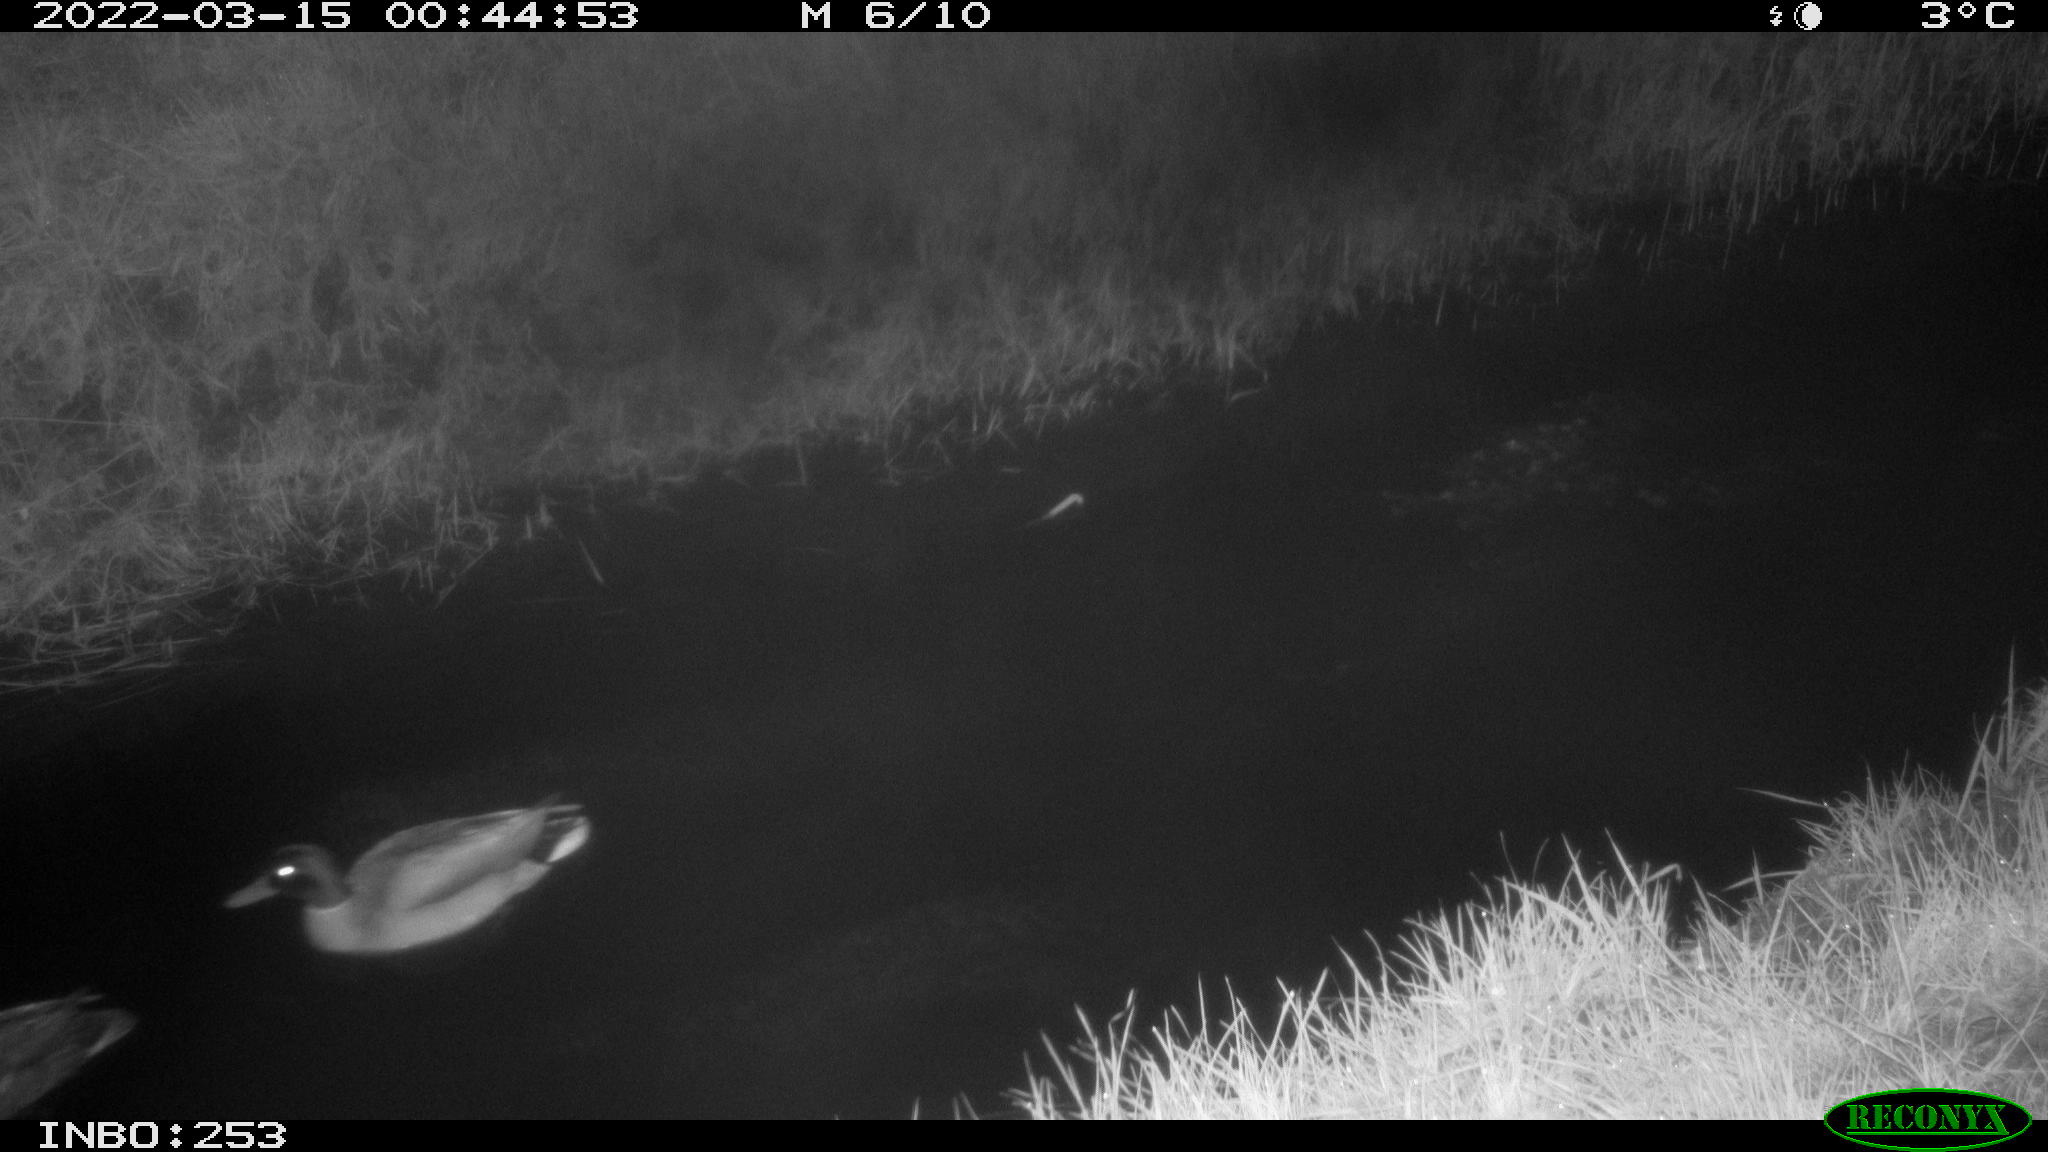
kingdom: Animalia
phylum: Chordata
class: Aves
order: Anseriformes
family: Anatidae
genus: Anas
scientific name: Anas platyrhynchos
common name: Mallard
